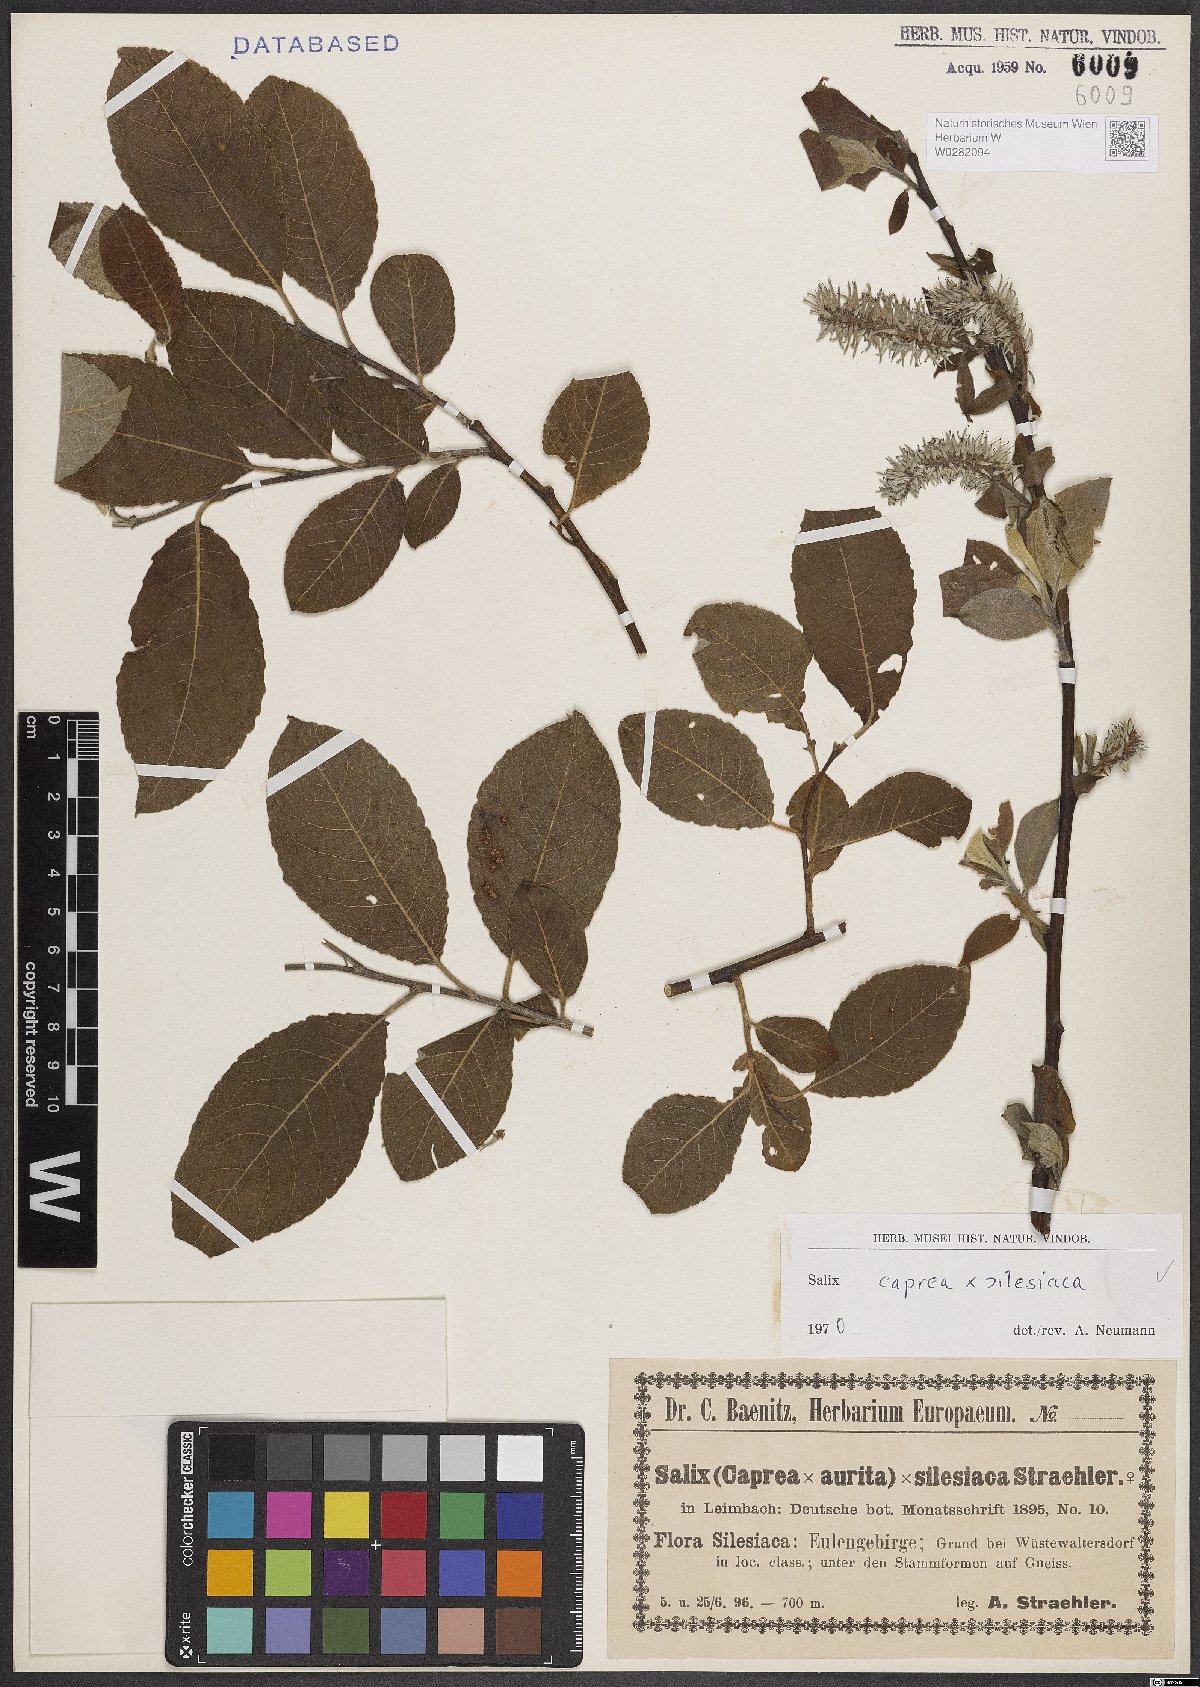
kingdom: Plantae
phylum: Tracheophyta
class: Magnoliopsida
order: Malpighiales
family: Salicaceae
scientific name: Salicaceae
